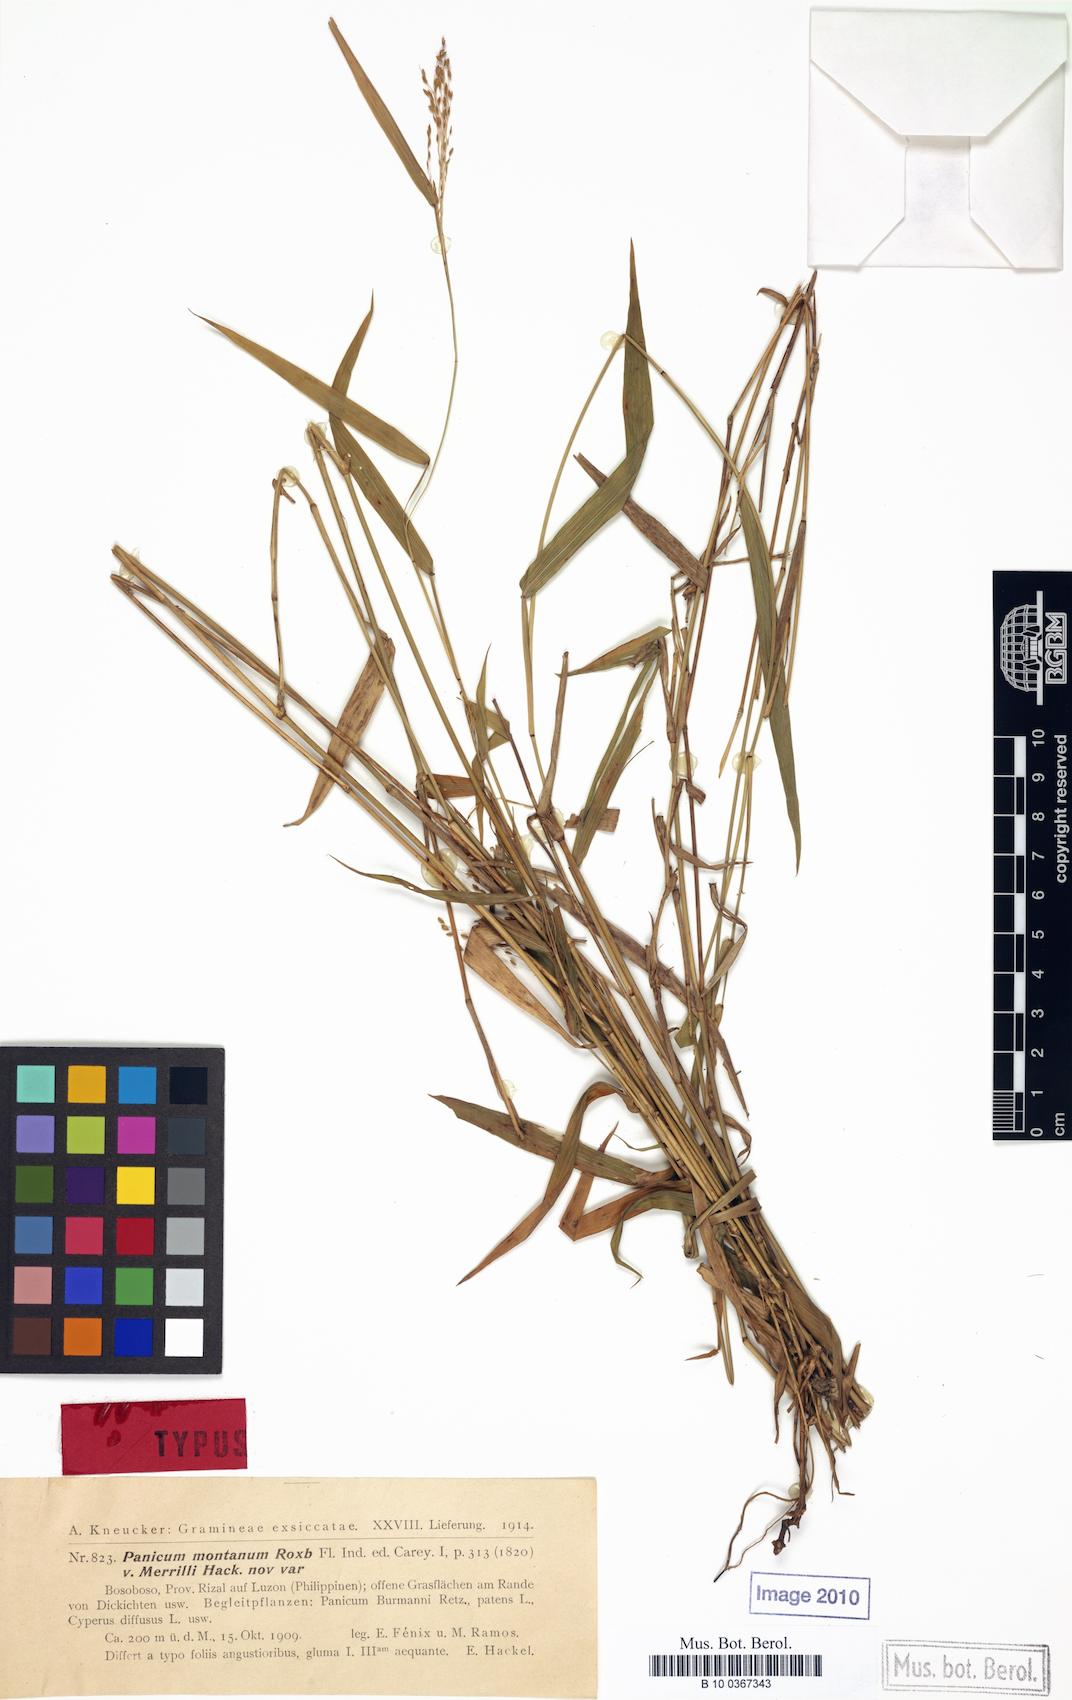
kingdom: Plantae
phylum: Tracheophyta
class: Liliopsida
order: Poales
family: Poaceae
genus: Panicum
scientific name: Panicum notatum
